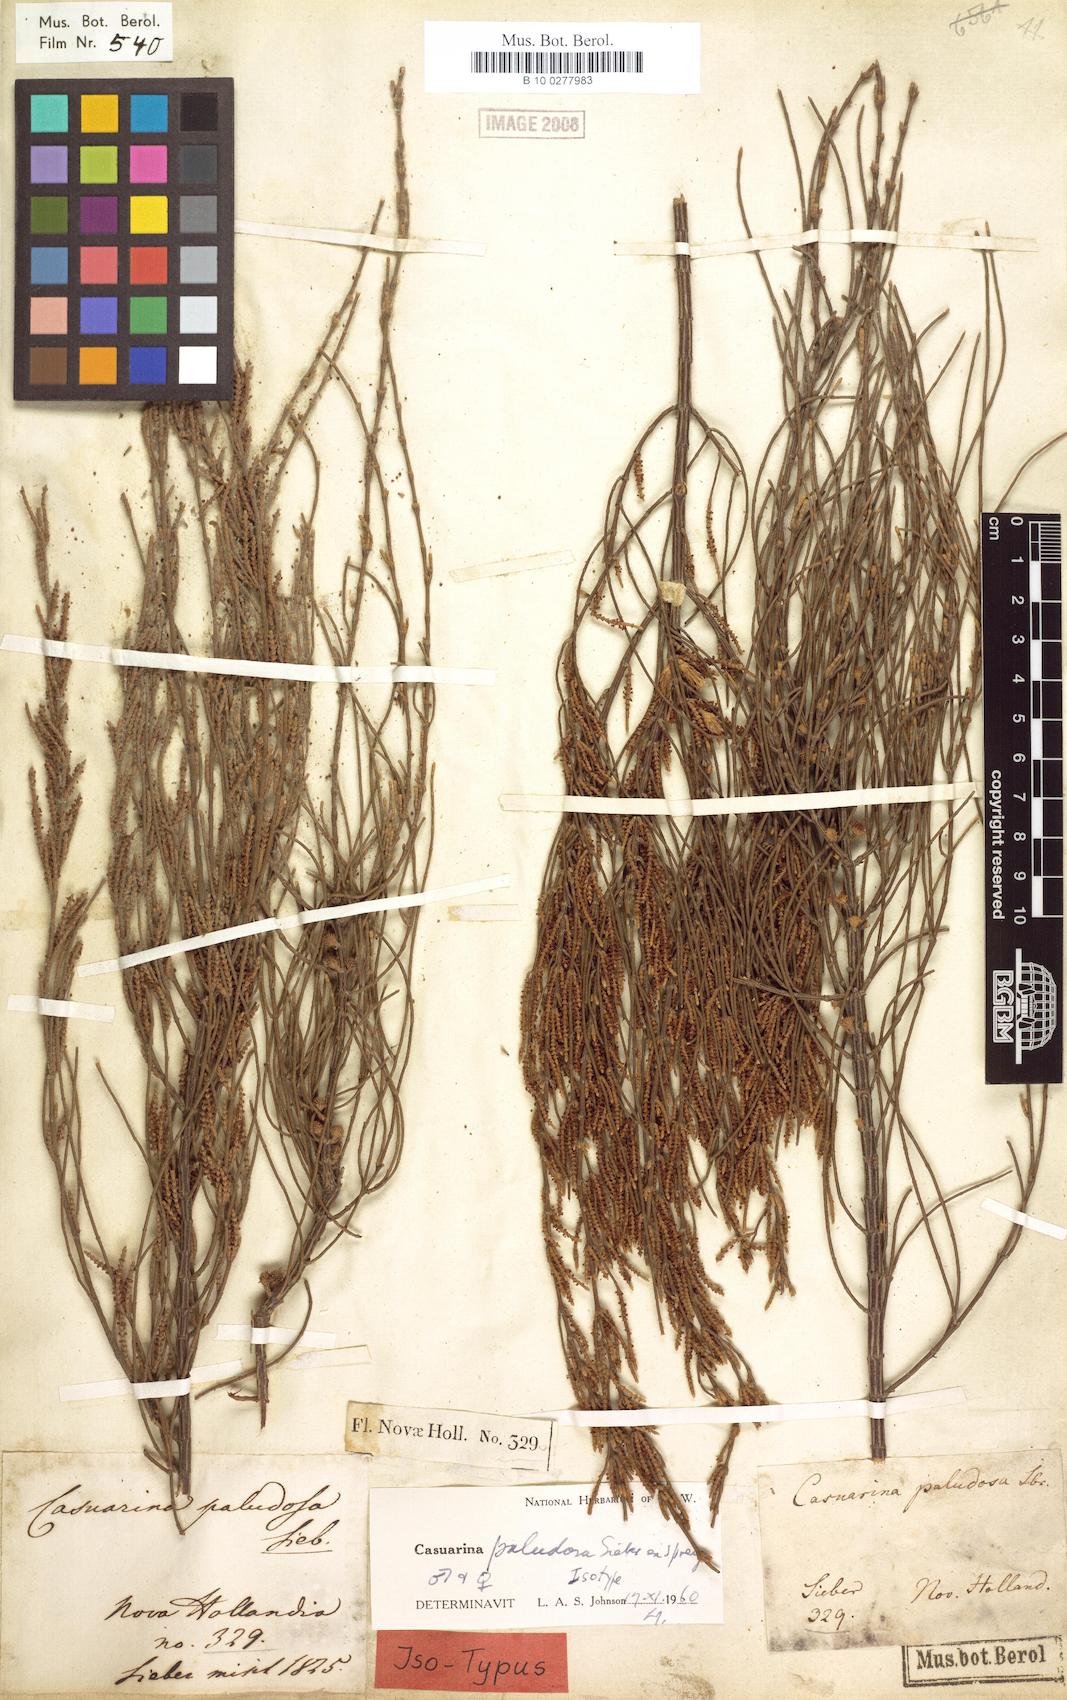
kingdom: Plantae
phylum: Tracheophyta
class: Magnoliopsida
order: Fagales
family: Casuarinaceae
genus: Allocasuarina
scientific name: Allocasuarina paludosa
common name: Scrub she-oak
